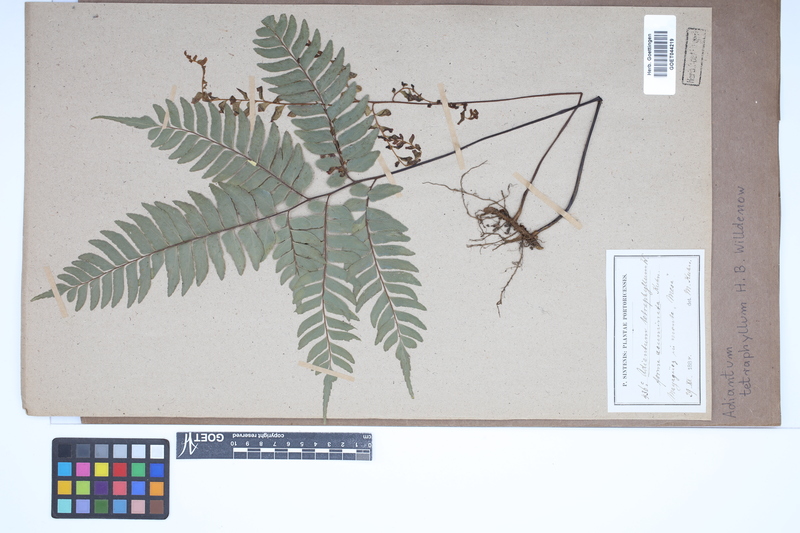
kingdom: Plantae
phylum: Tracheophyta
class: Polypodiopsida
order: Polypodiales
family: Pteridaceae
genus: Adiantum
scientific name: Adiantum tetraphyllum
